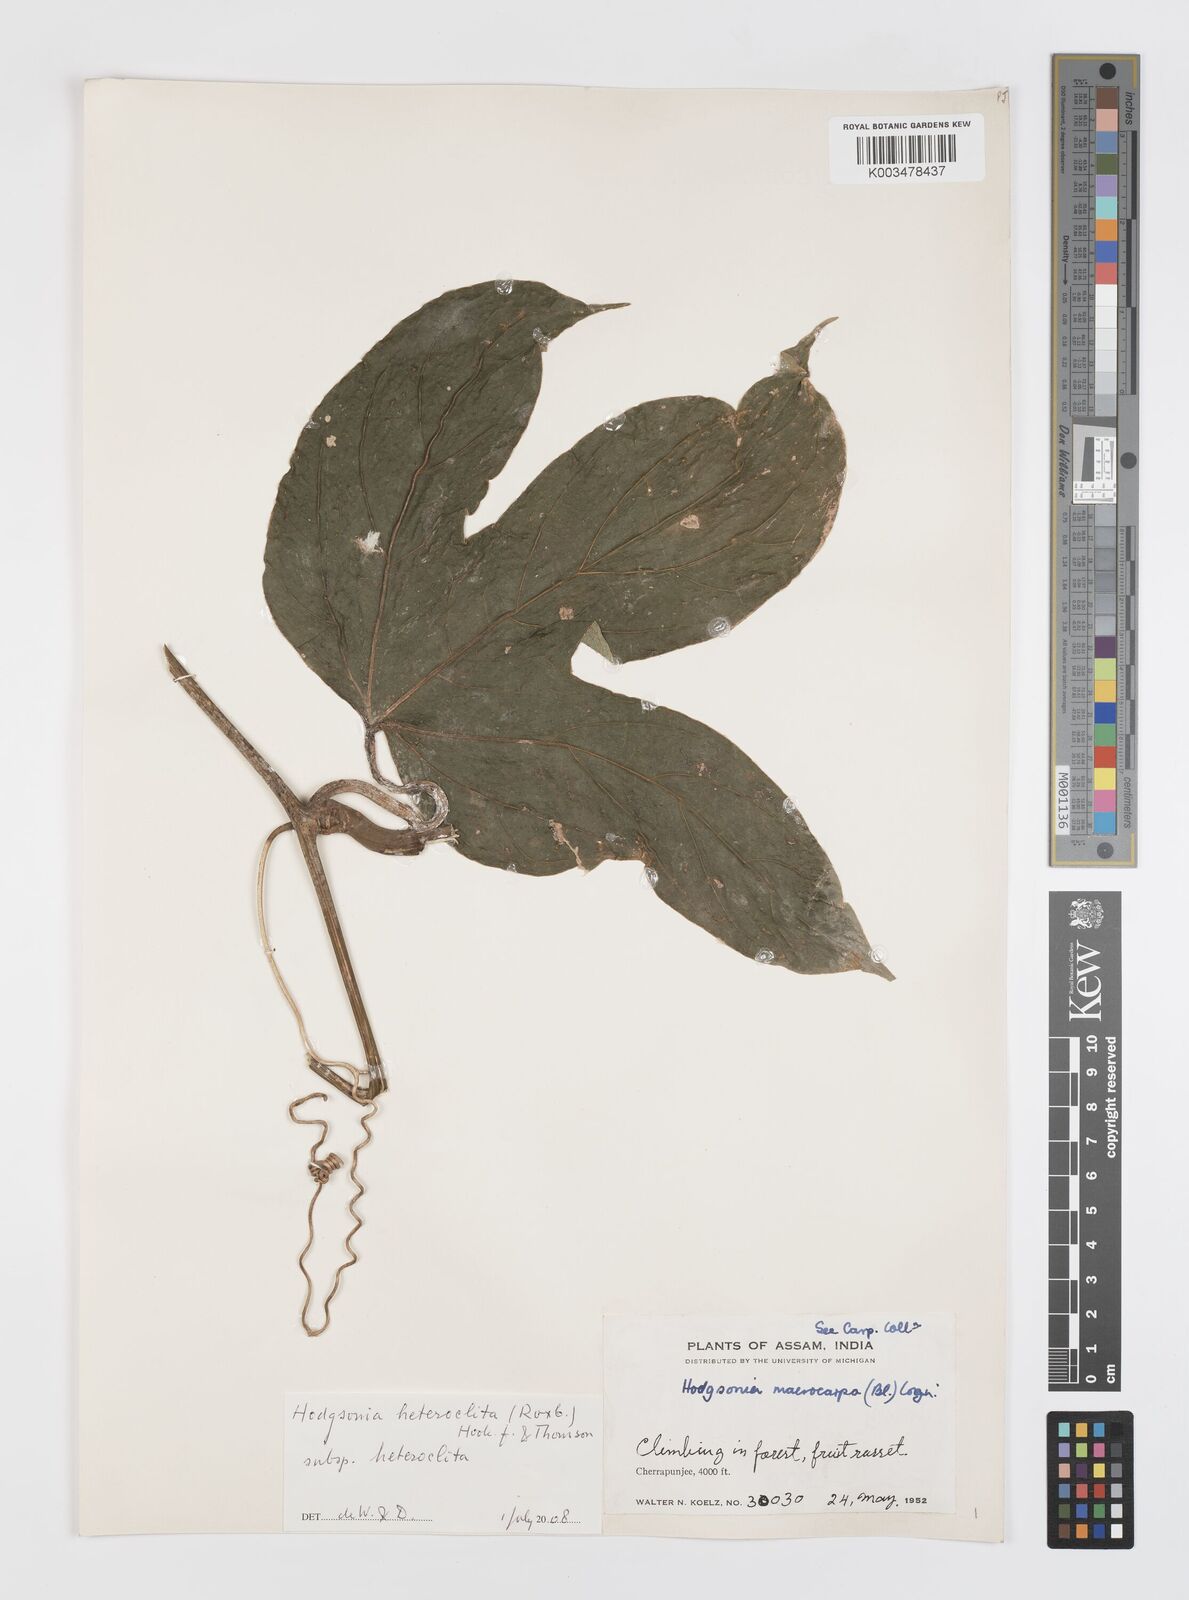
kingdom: Plantae
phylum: Tracheophyta
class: Magnoliopsida
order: Cucurbitales
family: Cucurbitaceae
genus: Hodgsonia
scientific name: Hodgsonia macrocarpa
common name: Chinese lardfruit
